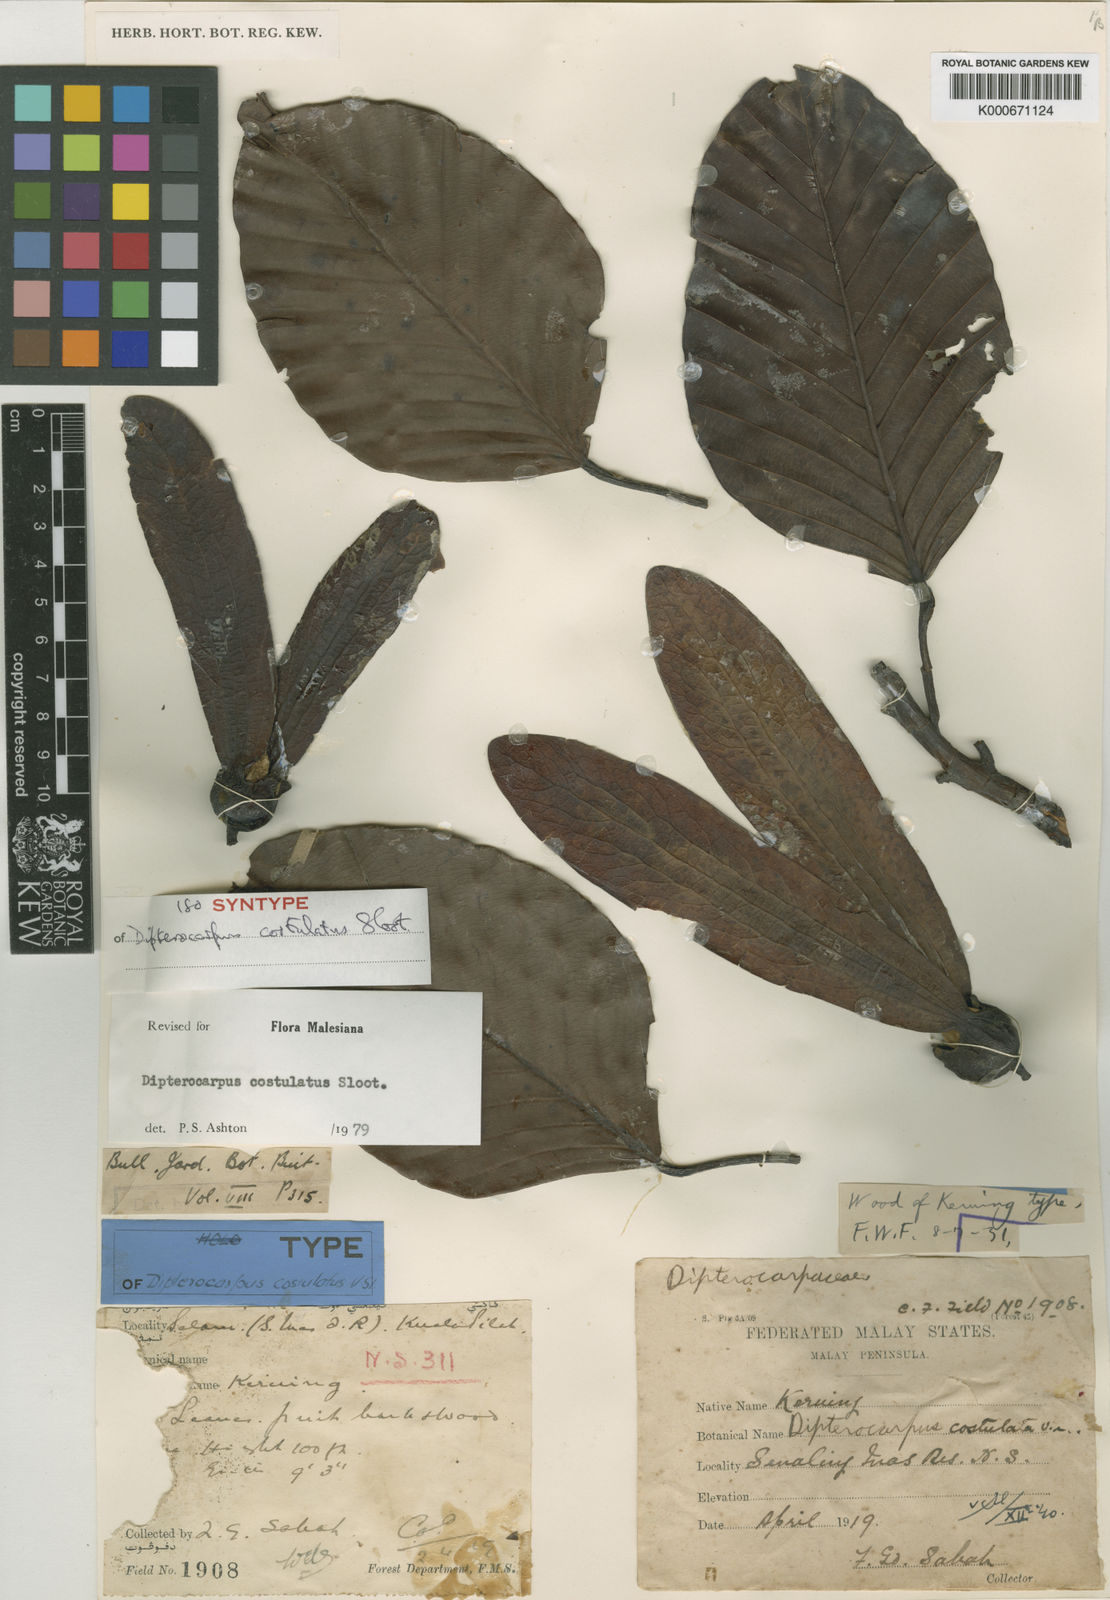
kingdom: Plantae
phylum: Tracheophyta
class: Magnoliopsida
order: Malvales
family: Dipterocarpaceae
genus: Dipterocarpus
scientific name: Dipterocarpus costulatus
